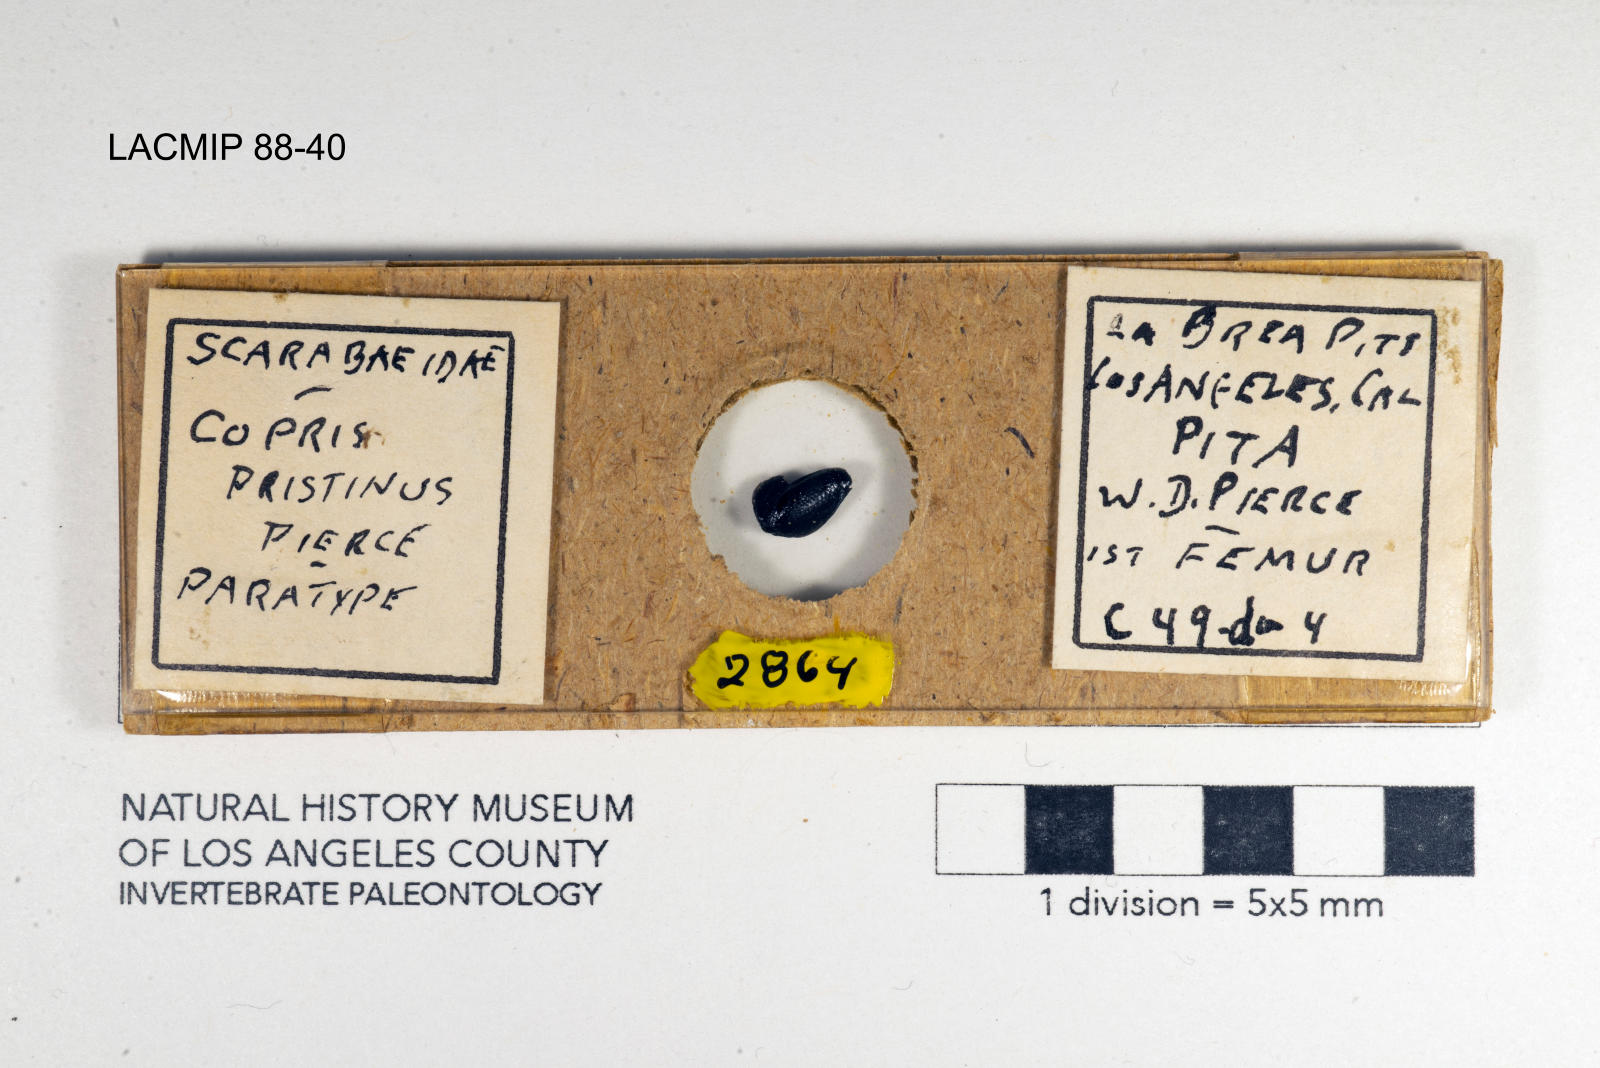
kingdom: Animalia
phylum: Arthropoda
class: Insecta
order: Coleoptera
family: Scarabaeidae
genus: Copris
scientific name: Copris pristinus
